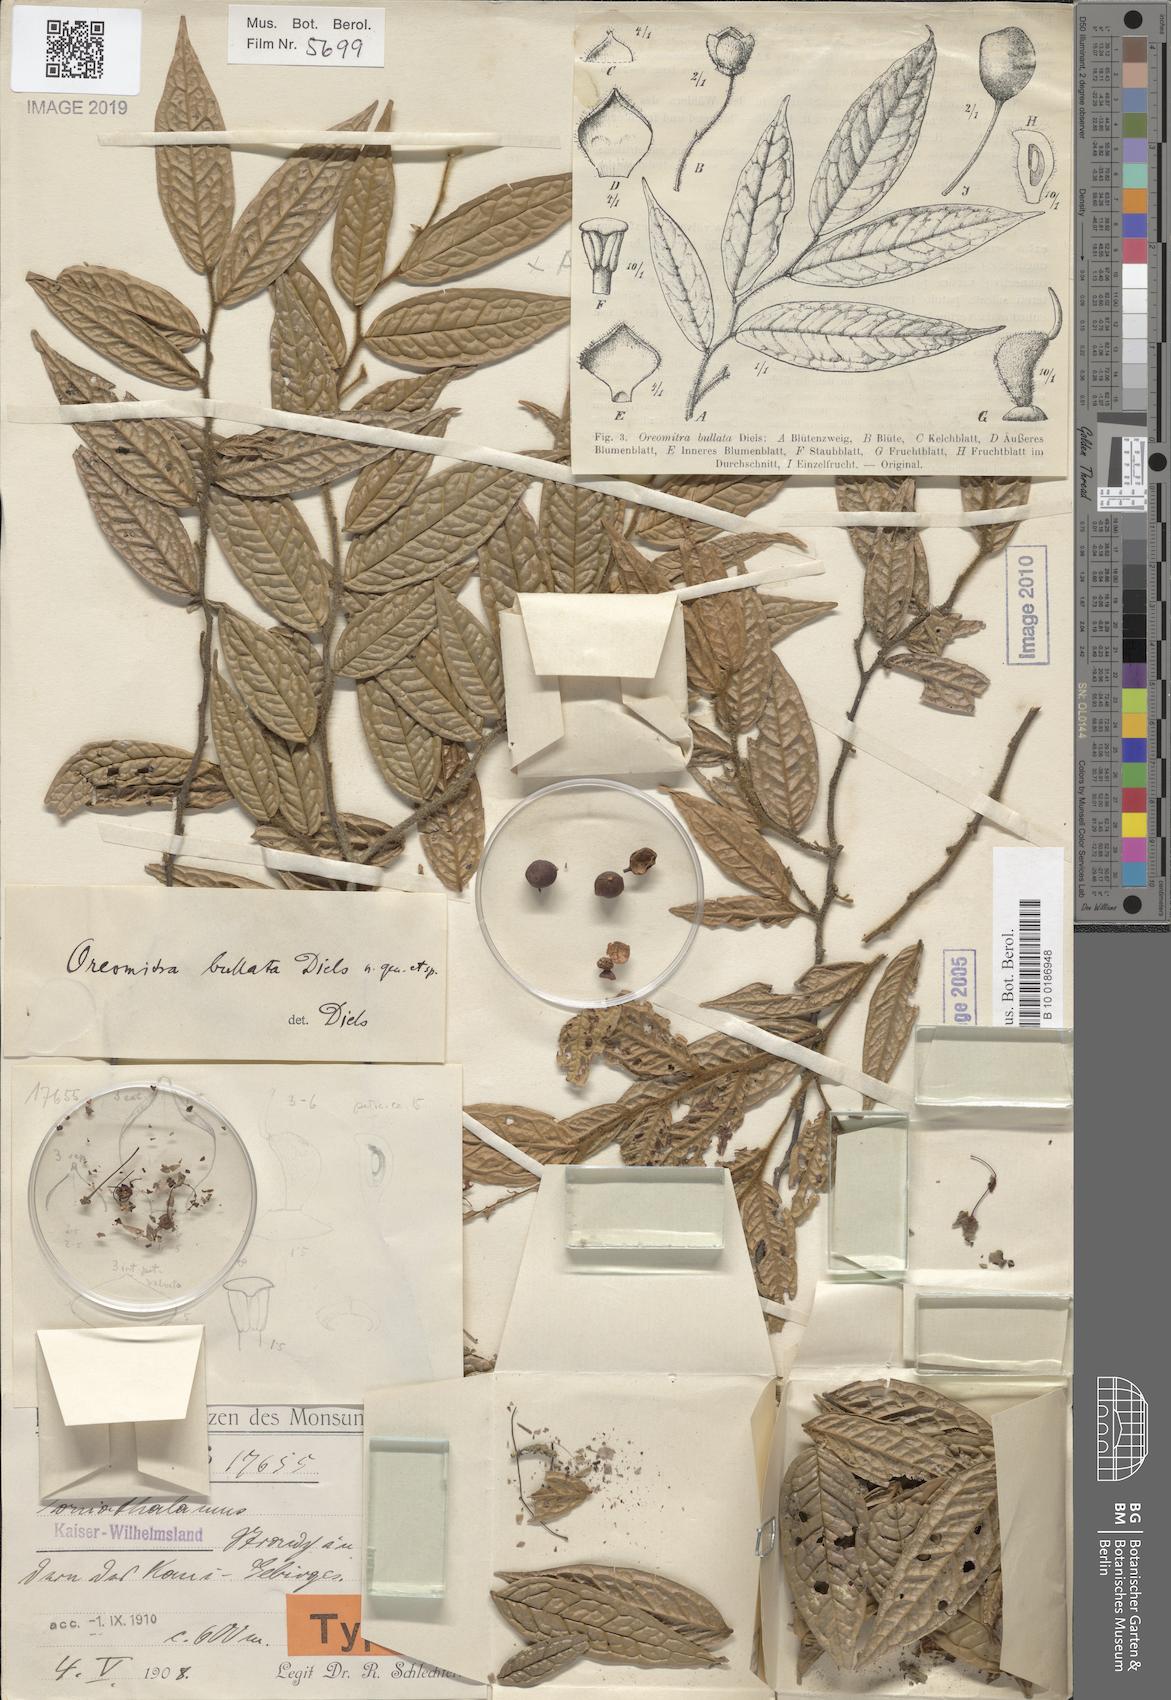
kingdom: Plantae
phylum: Tracheophyta
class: Magnoliopsida
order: Magnoliales
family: Annonaceae
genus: Oreomitra
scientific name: Oreomitra bullata
